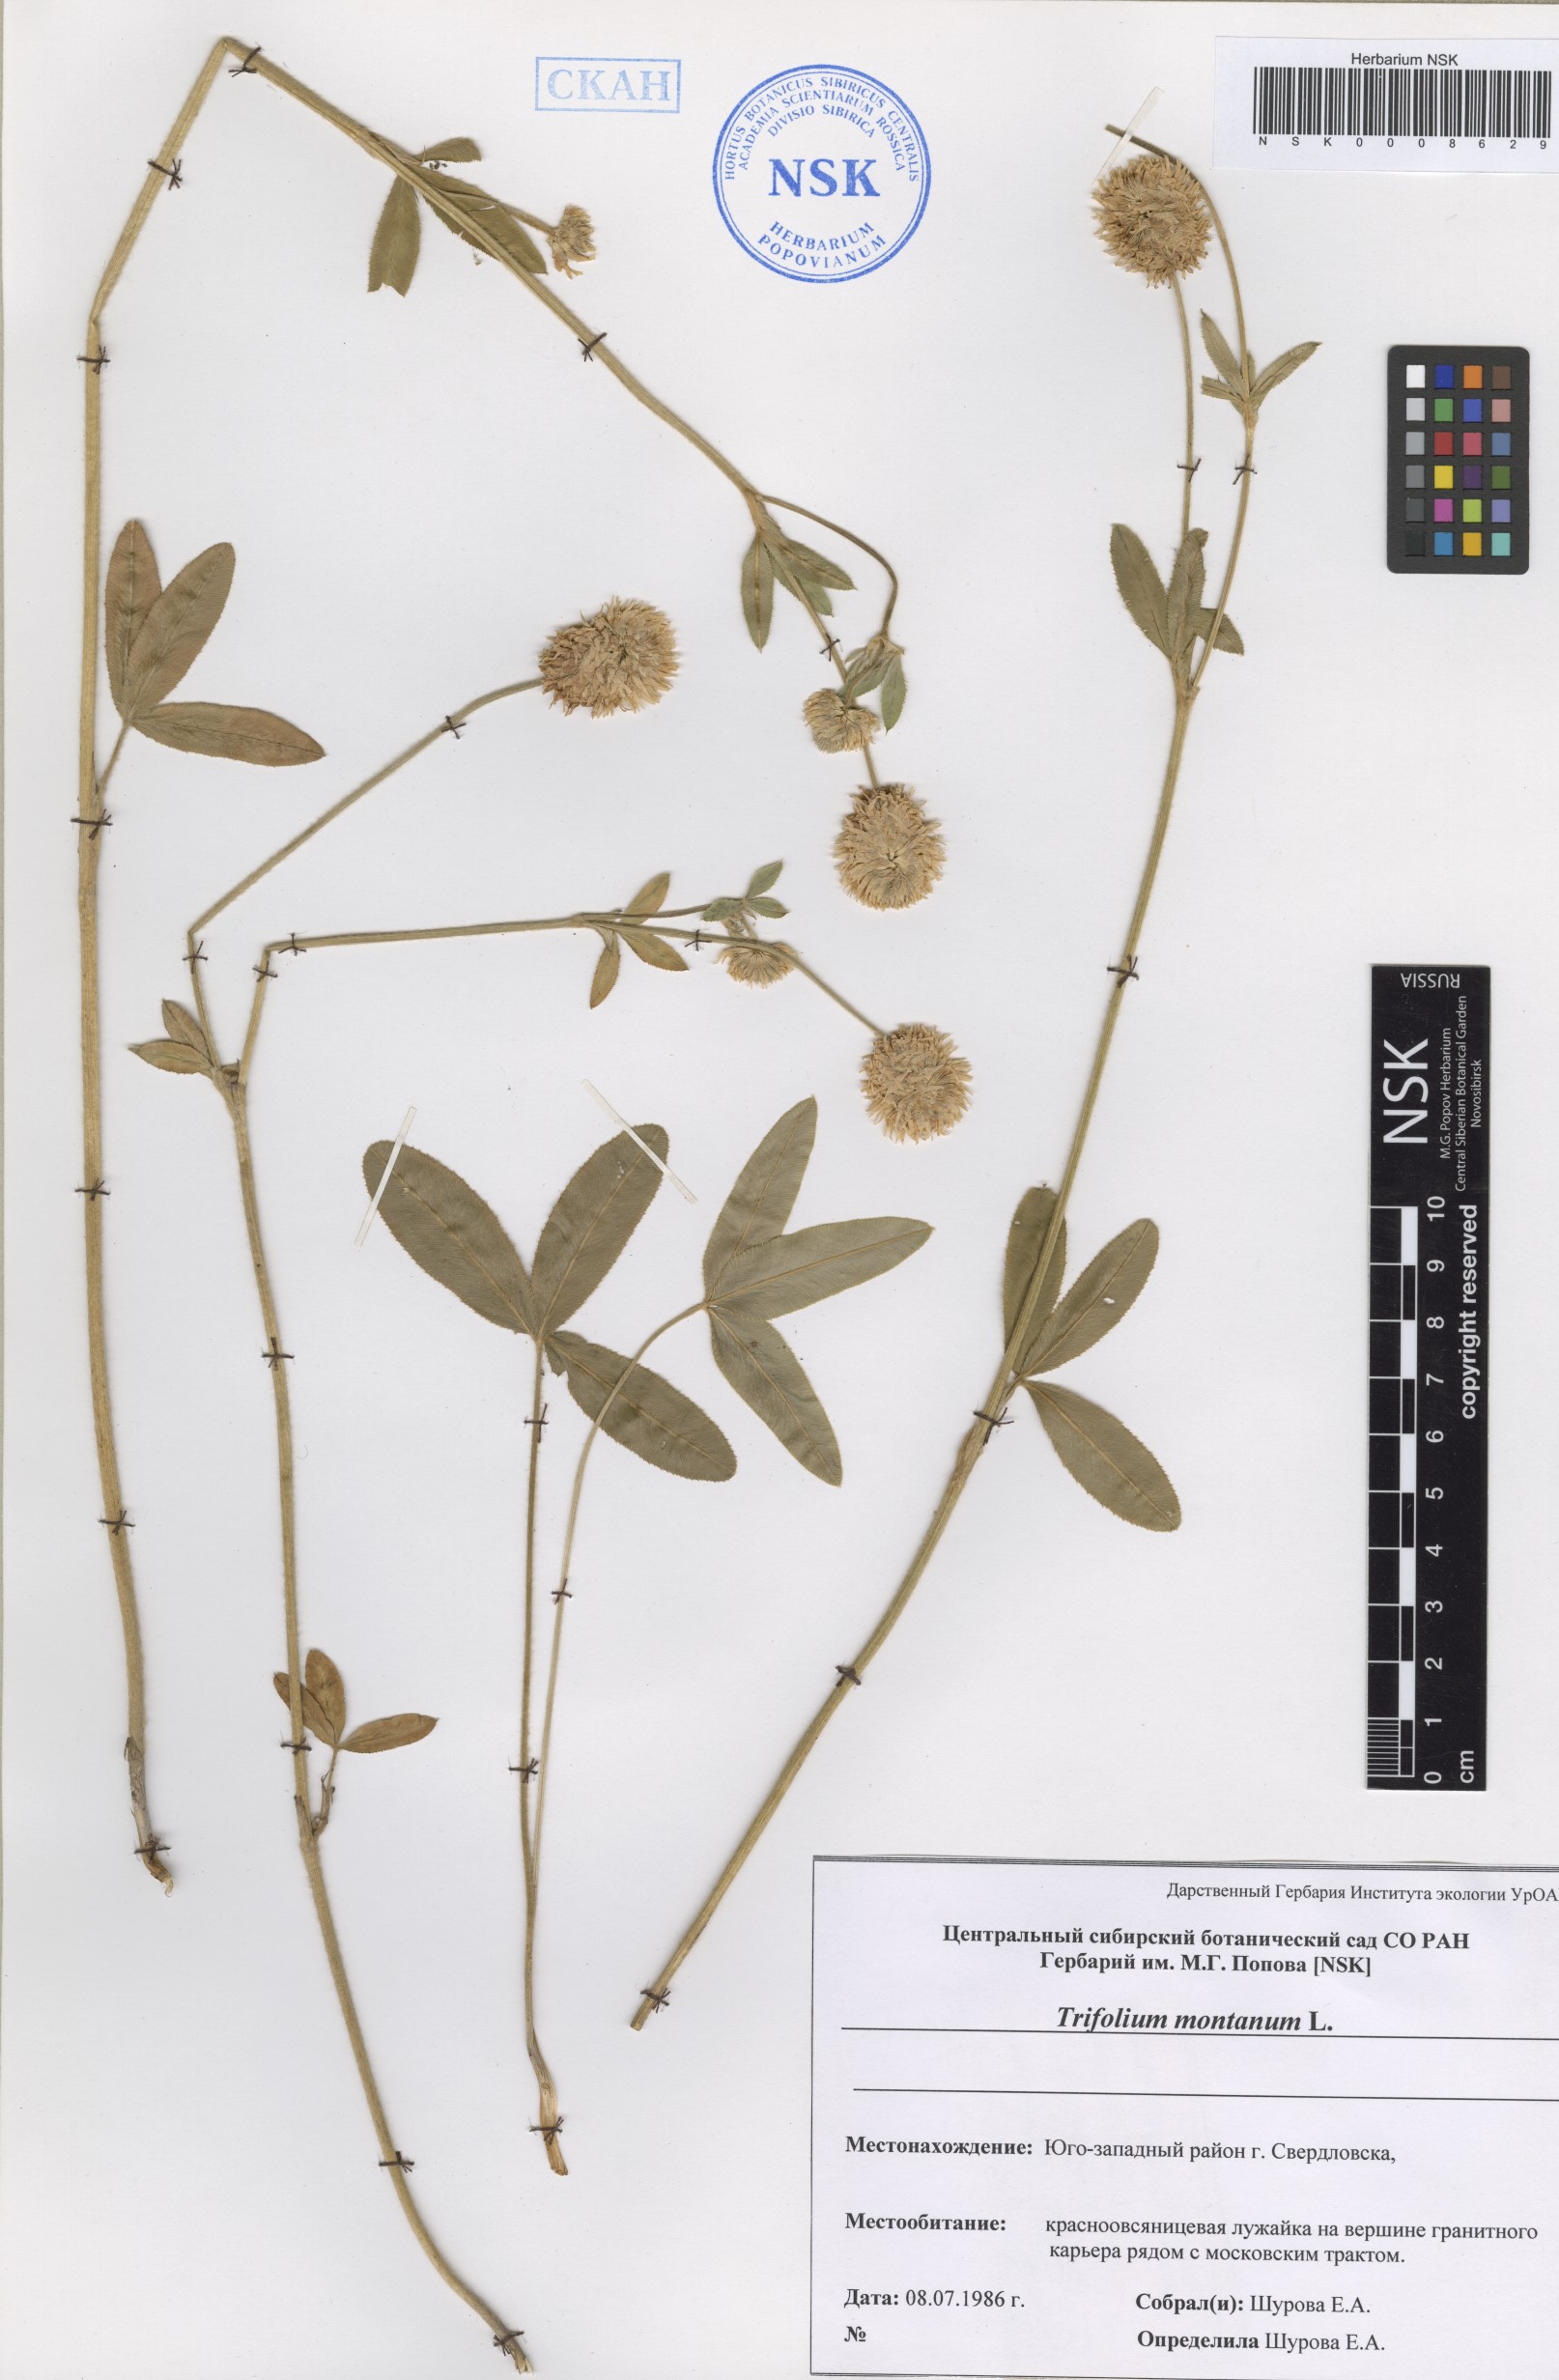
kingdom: Plantae
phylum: Tracheophyta
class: Magnoliopsida
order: Fabales
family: Fabaceae
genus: Trifolium
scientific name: Trifolium montanum
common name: Mountain clover
